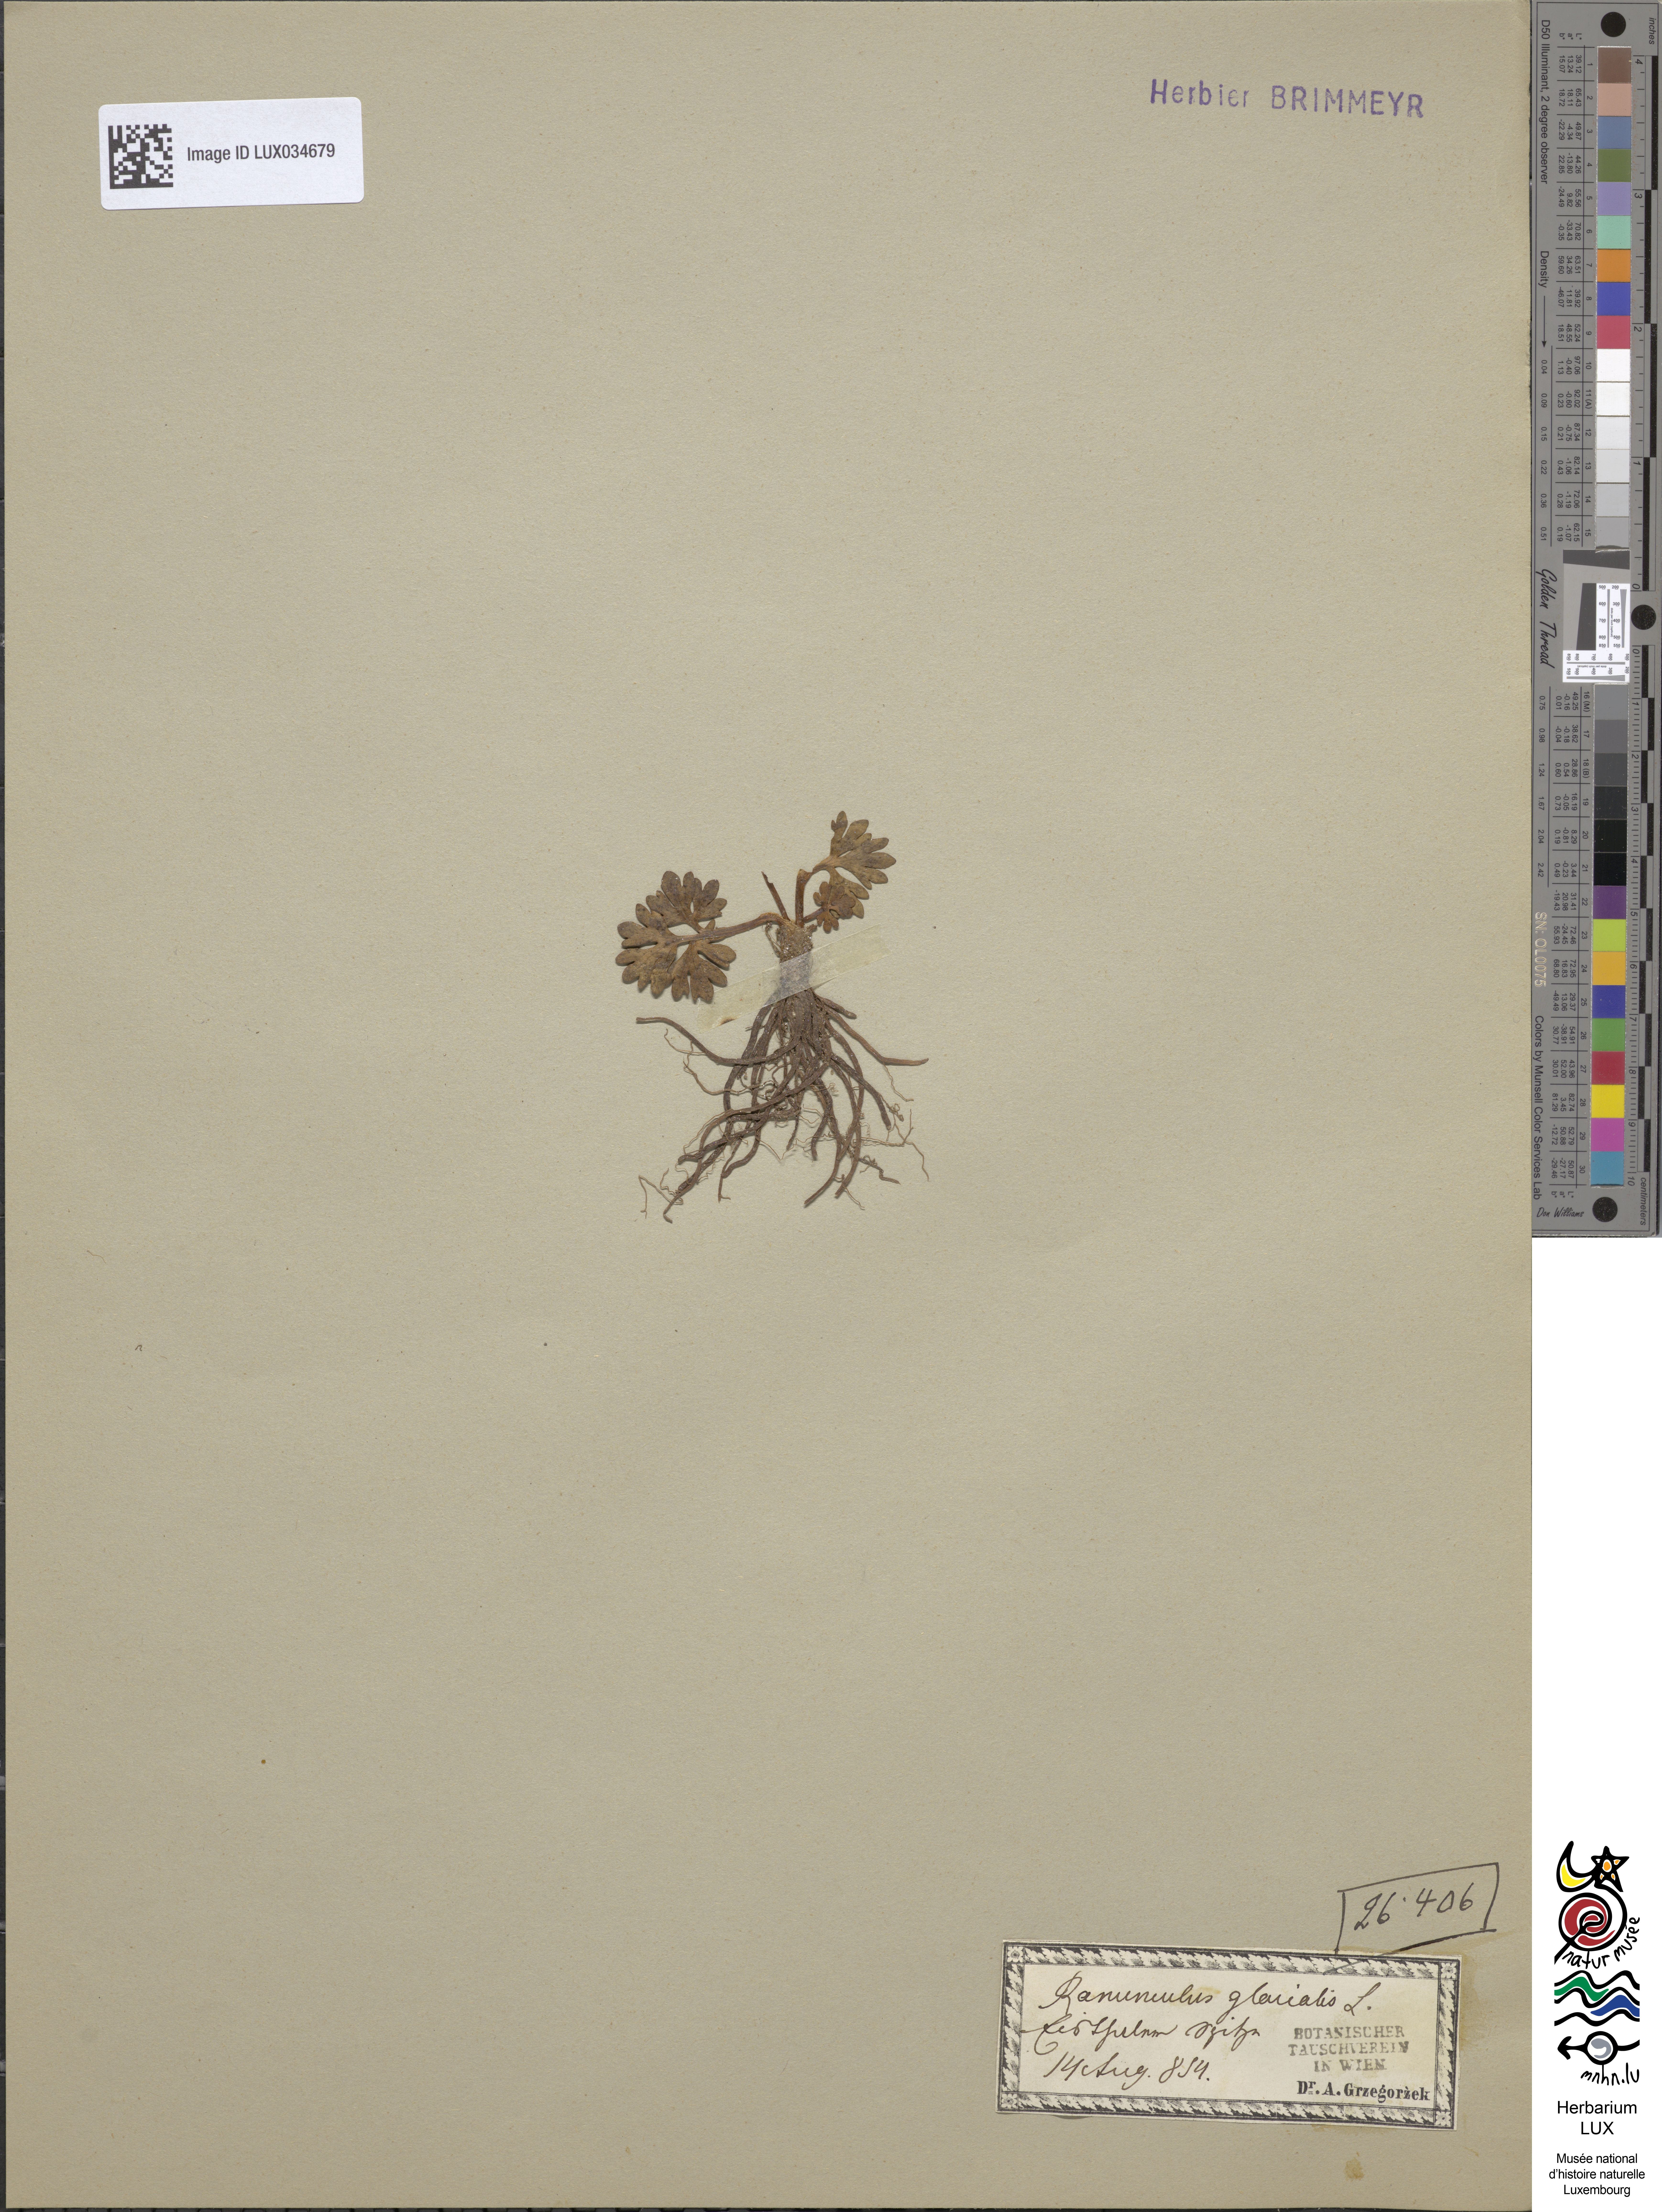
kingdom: Plantae
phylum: Tracheophyta
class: Magnoliopsida
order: Ranunculales
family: Ranunculaceae
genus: Ranunculus
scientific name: Ranunculus glacialis
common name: Glacier buttercup
